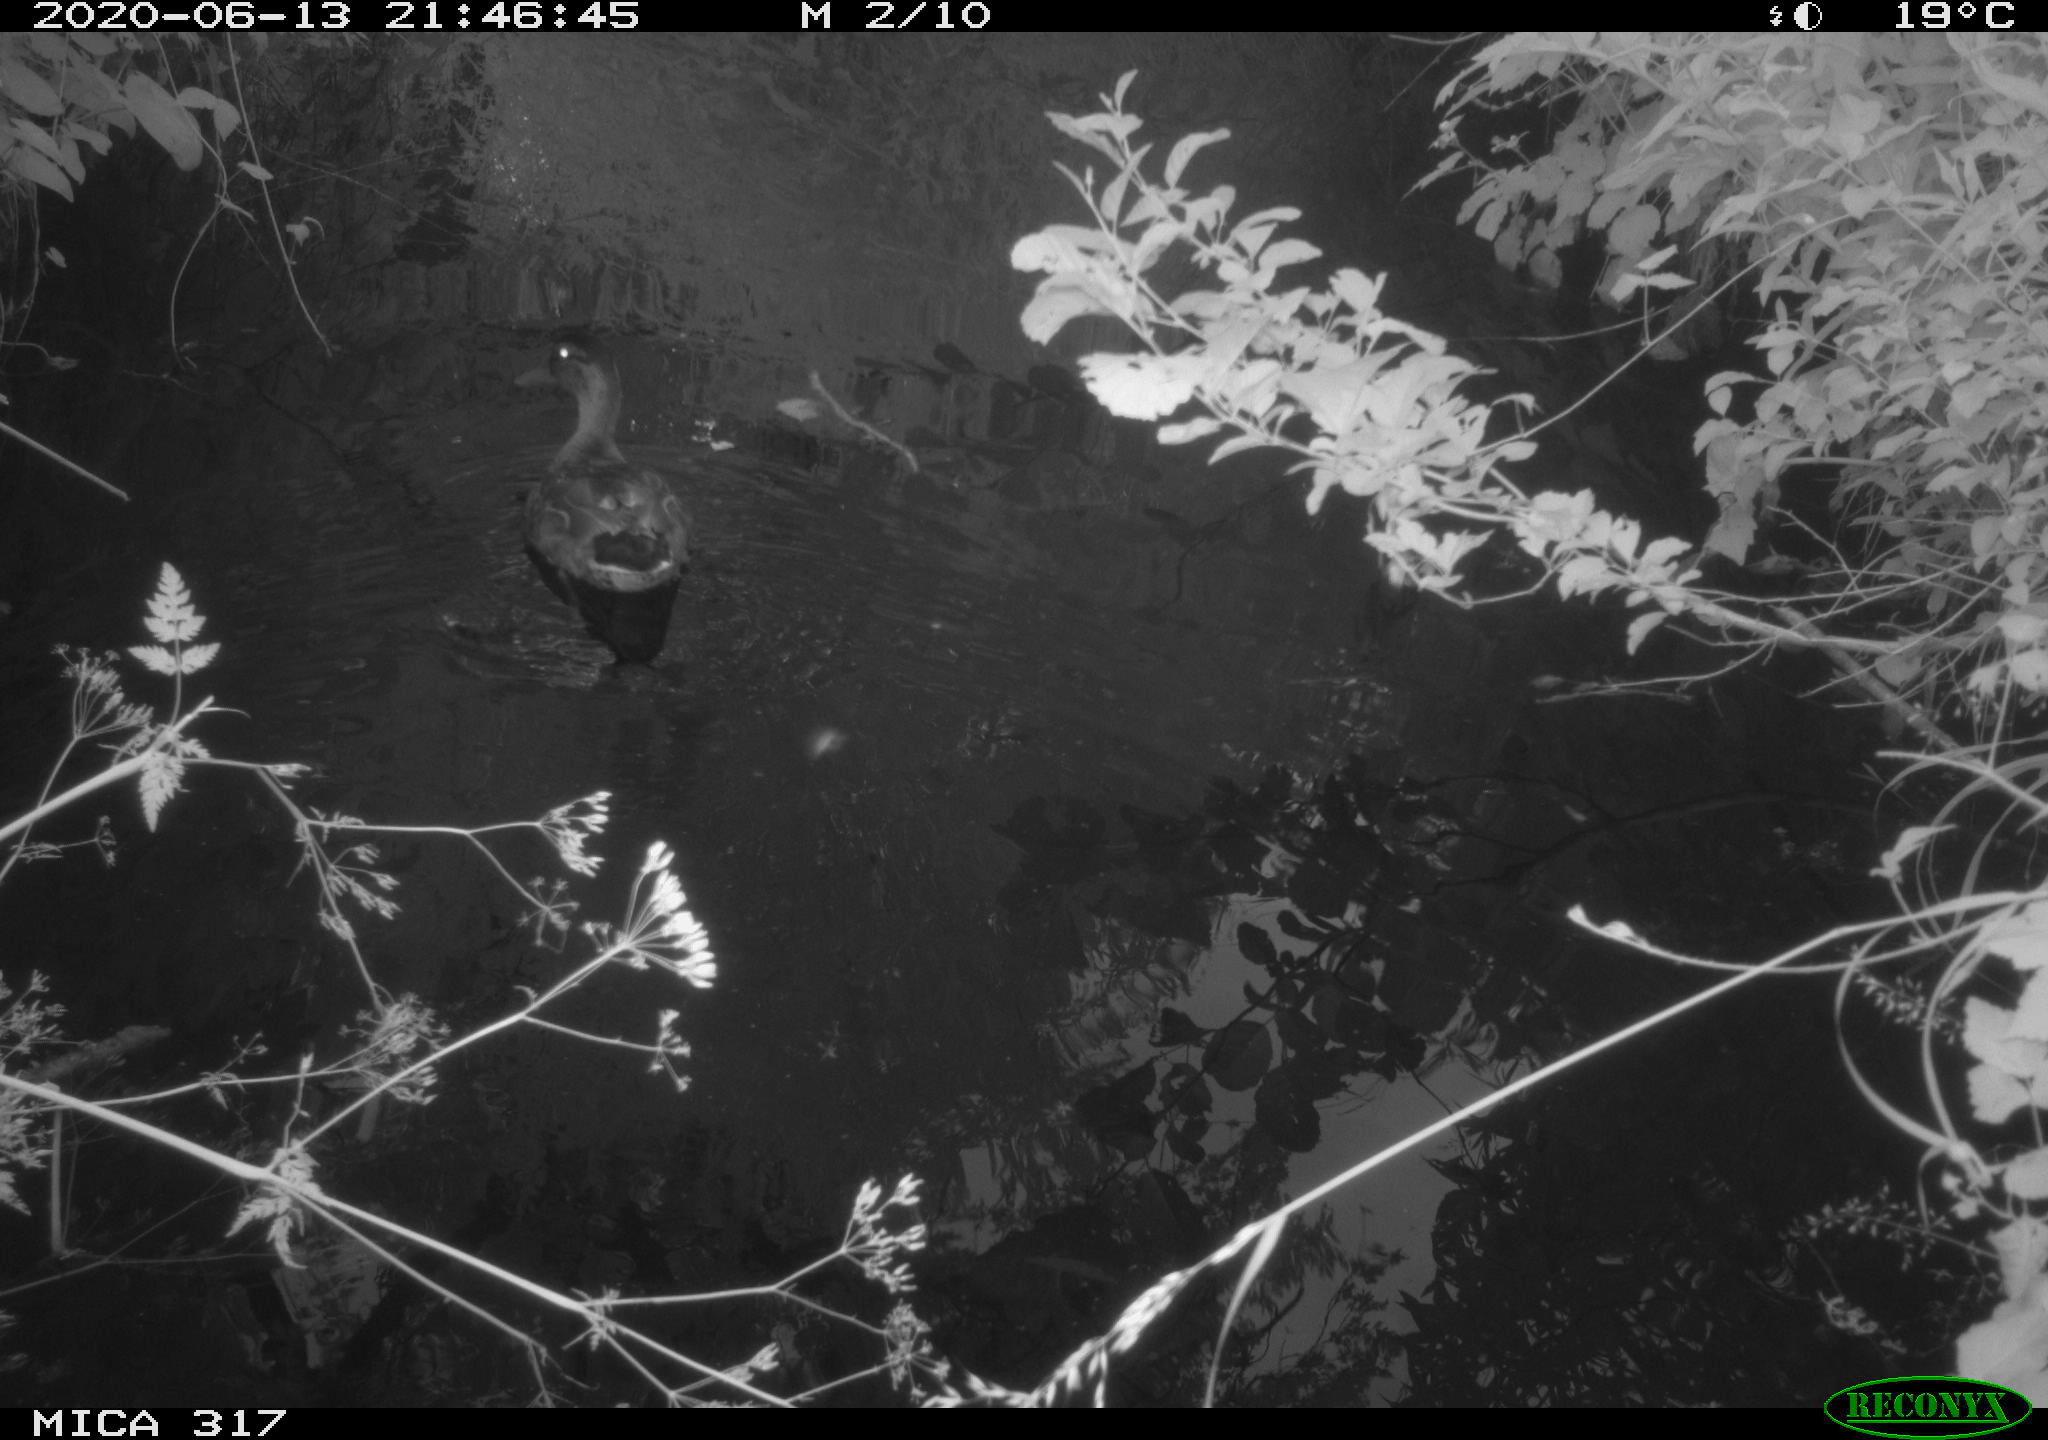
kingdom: Animalia
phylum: Chordata
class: Aves
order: Anseriformes
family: Anatidae
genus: Anas
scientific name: Anas platyrhynchos
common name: Mallard
